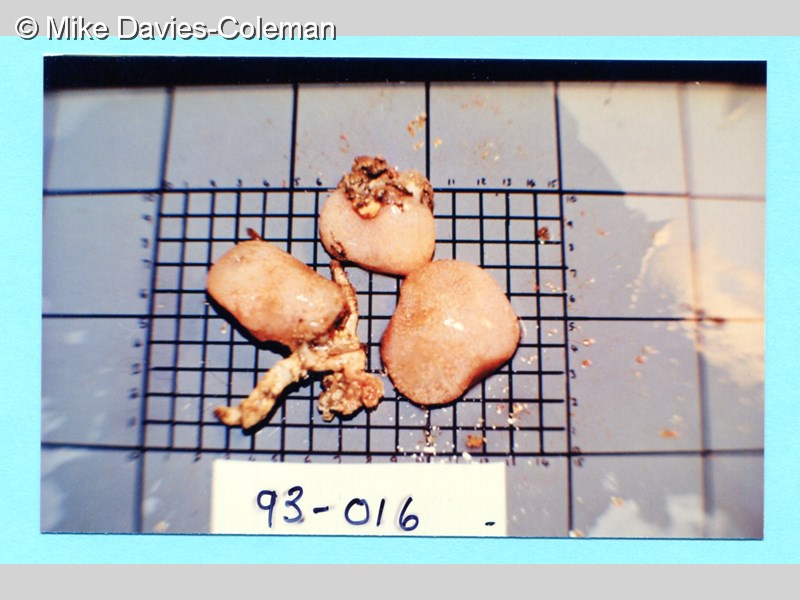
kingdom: Animalia
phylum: Chordata
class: Ascidiacea
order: Aplousobranchia
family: Pseudodistomidae
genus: Pseudodistoma
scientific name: Pseudodistoma
